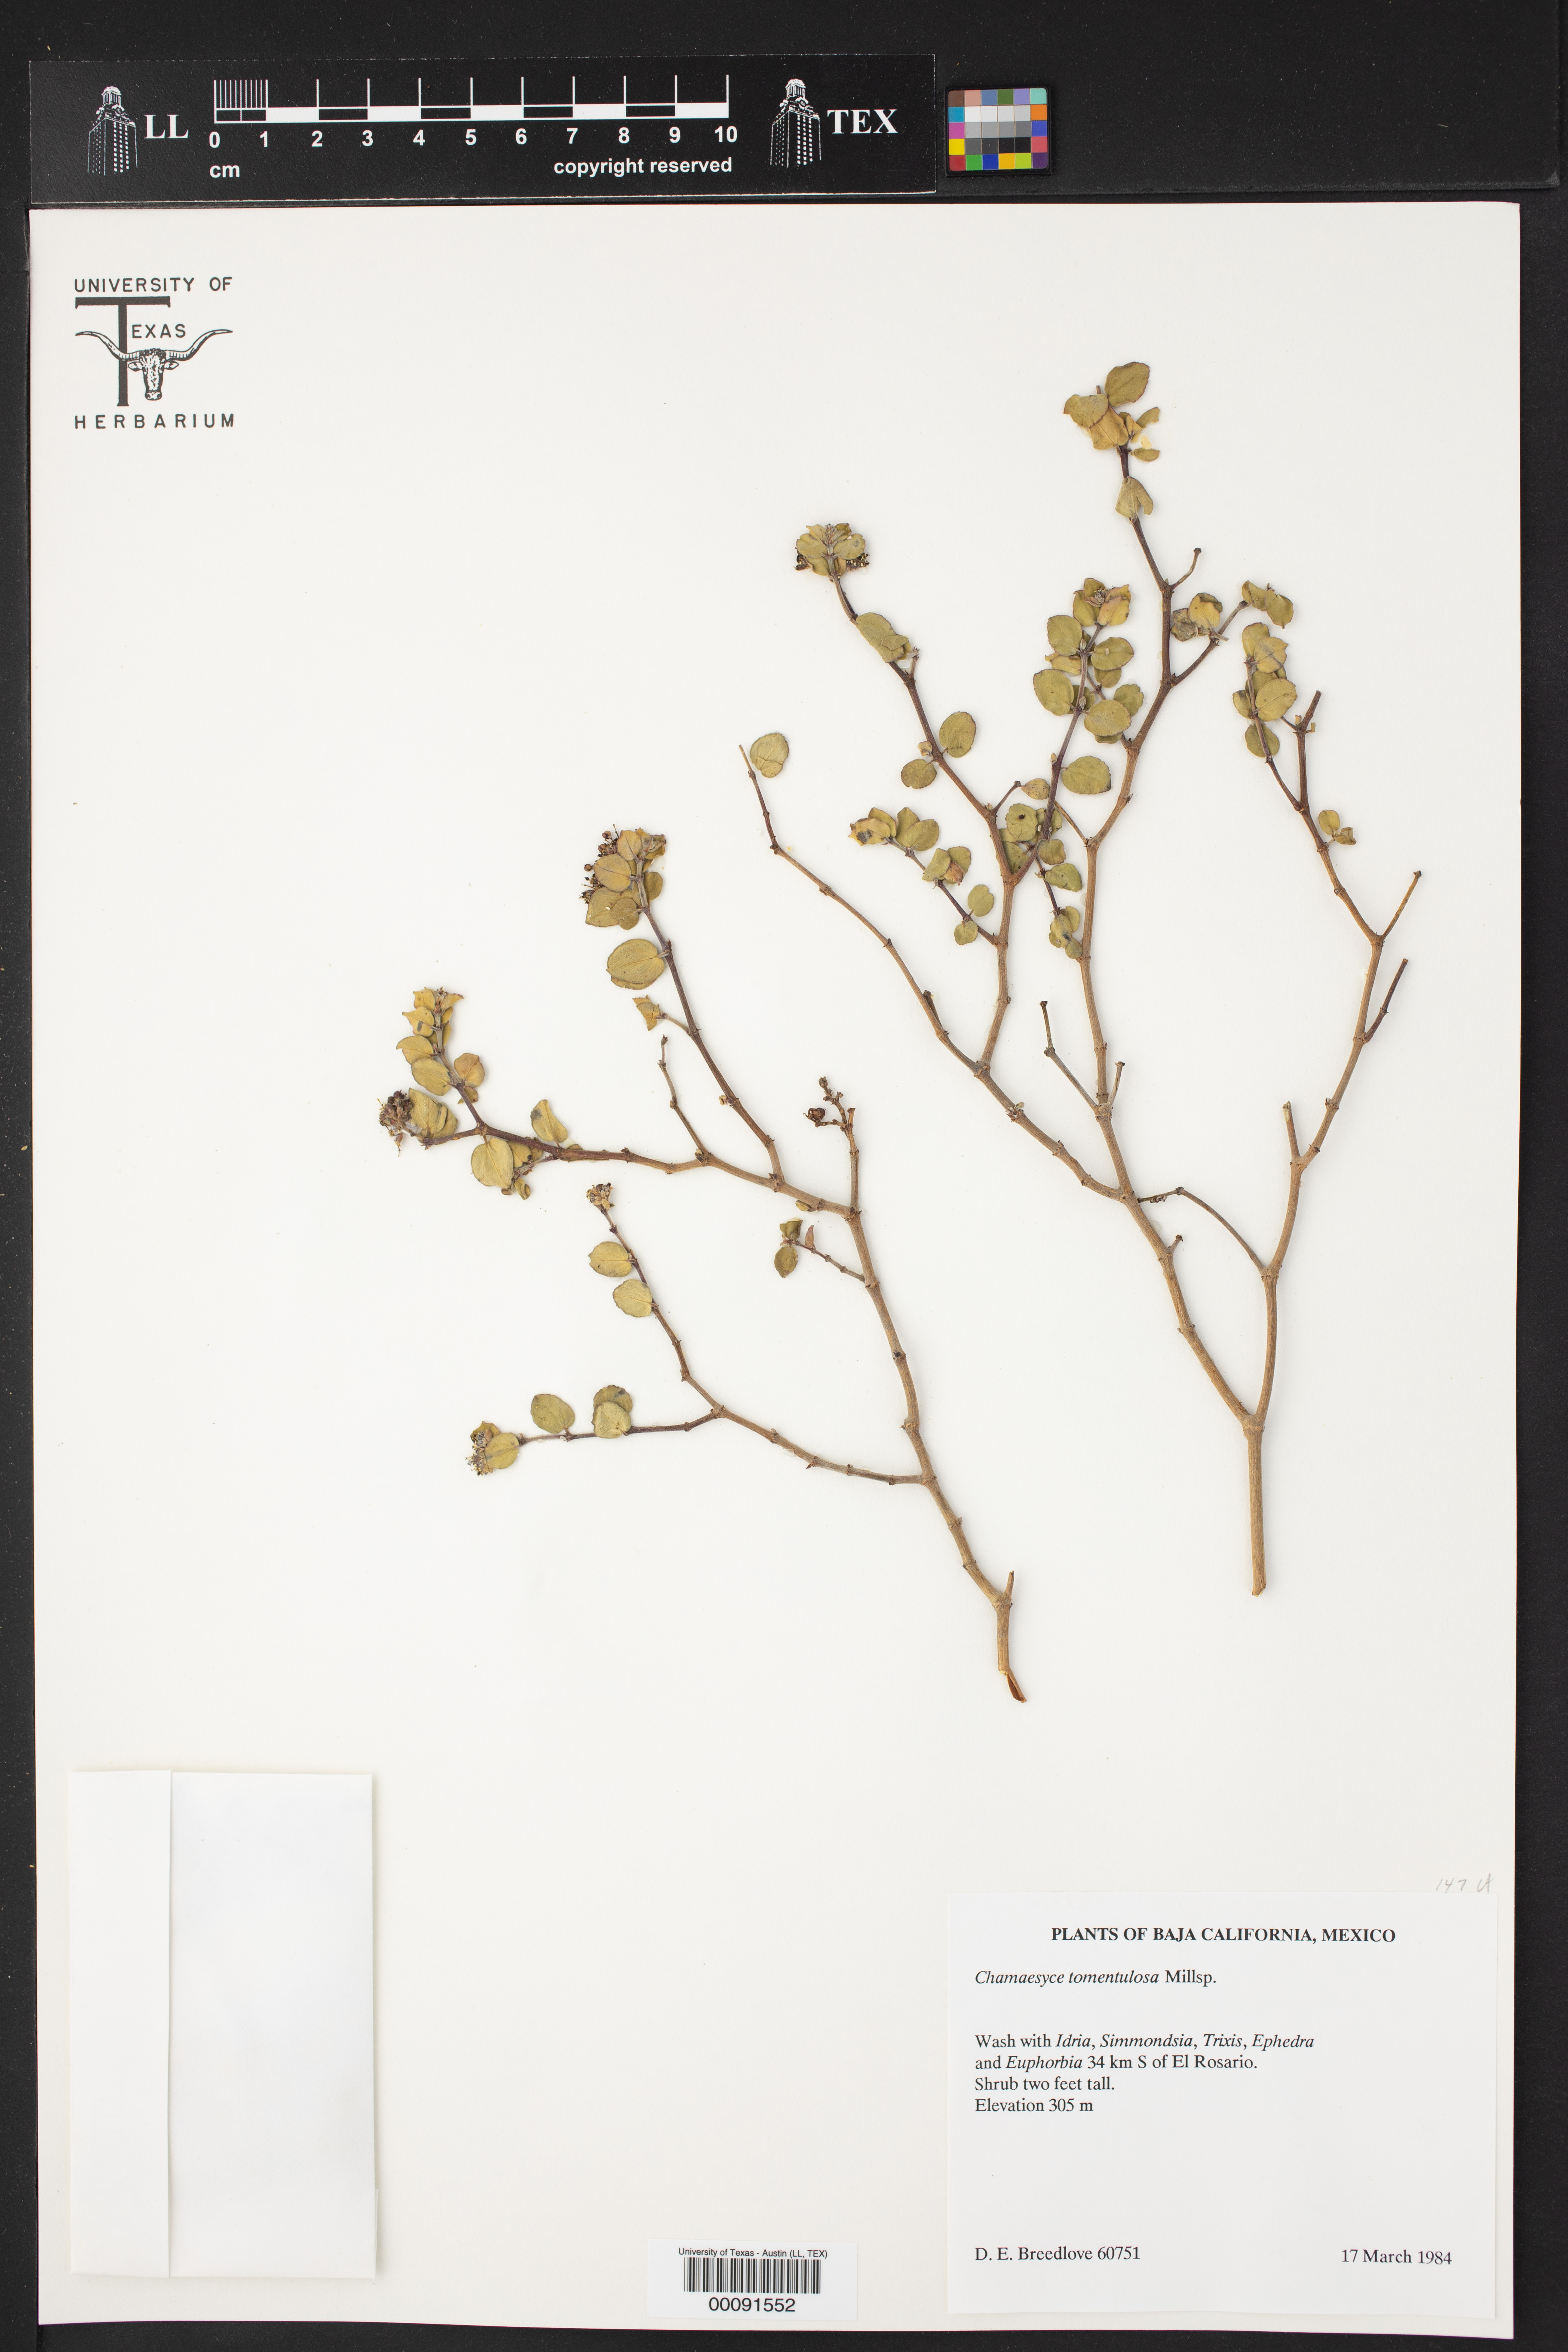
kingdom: Plantae
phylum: Tracheophyta
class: Magnoliopsida
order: Malpighiales
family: Euphorbiaceae
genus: Euphorbia
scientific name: Euphorbia tomentulosa
